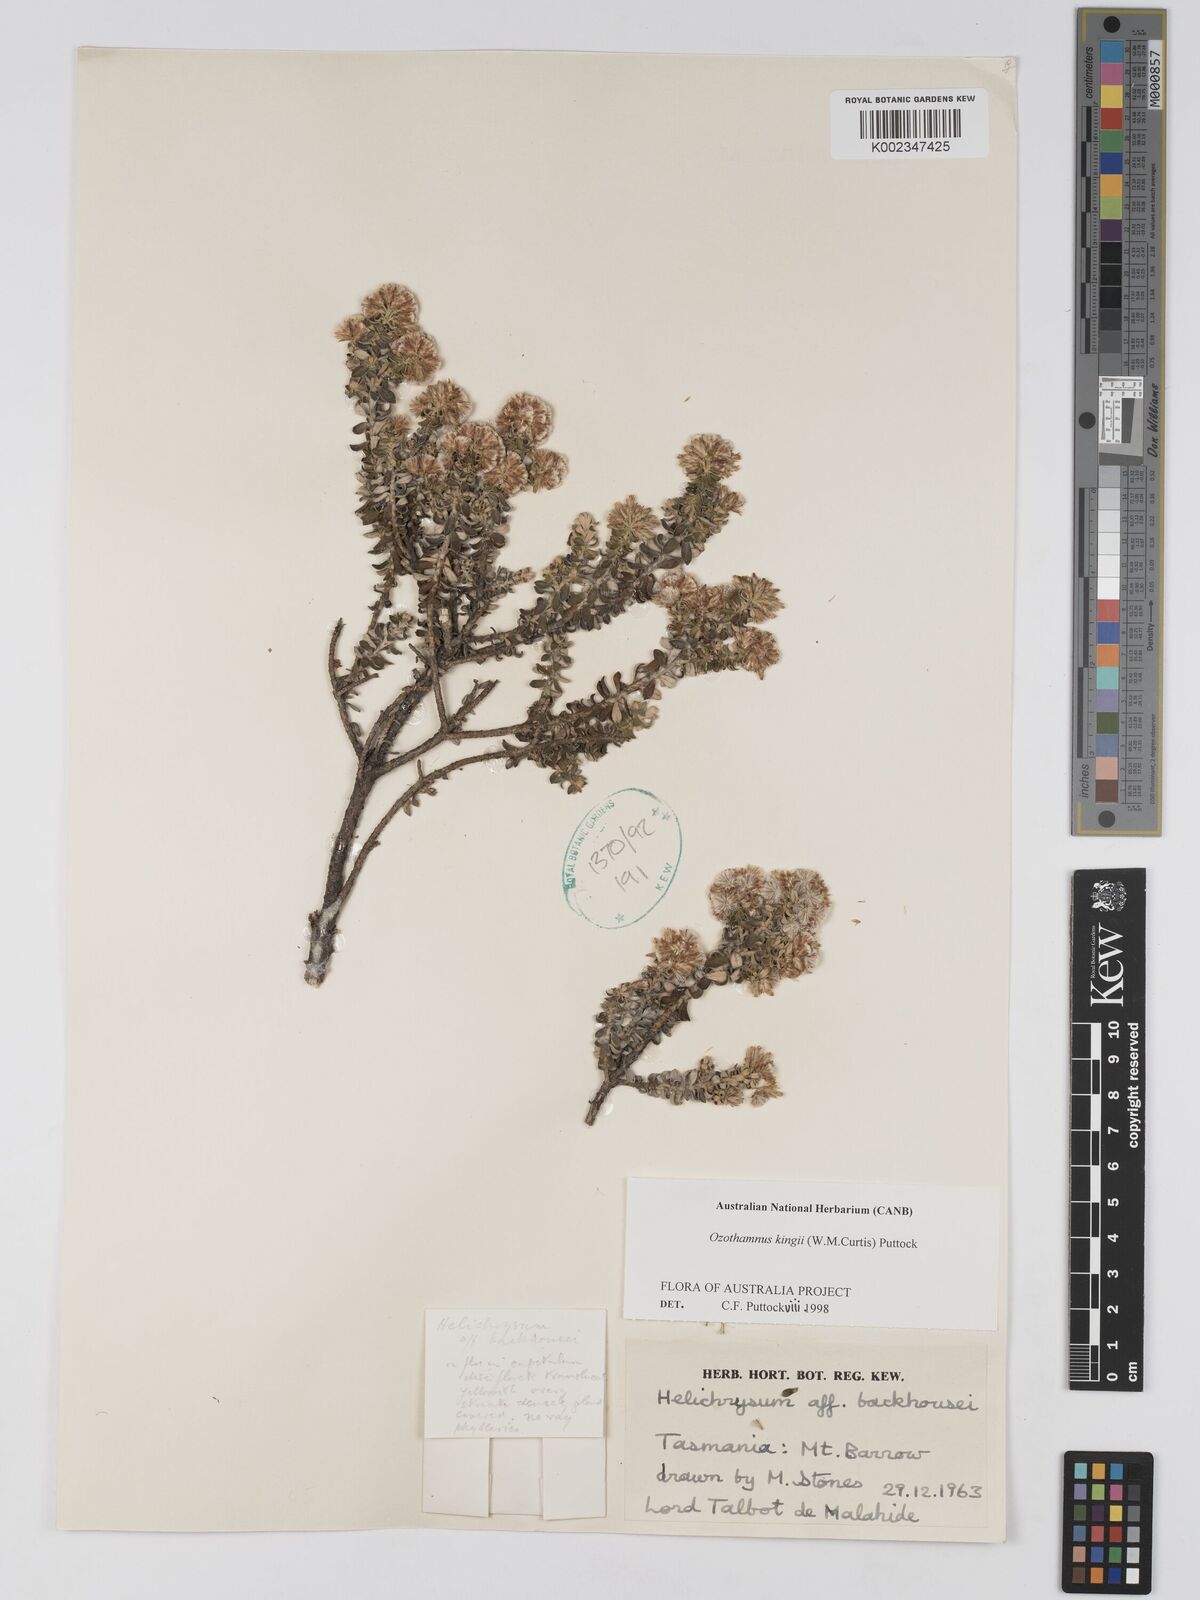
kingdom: Plantae
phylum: Tracheophyta
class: Magnoliopsida
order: Asterales
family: Asteraceae
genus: Ozothamnus
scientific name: Ozothamnus
